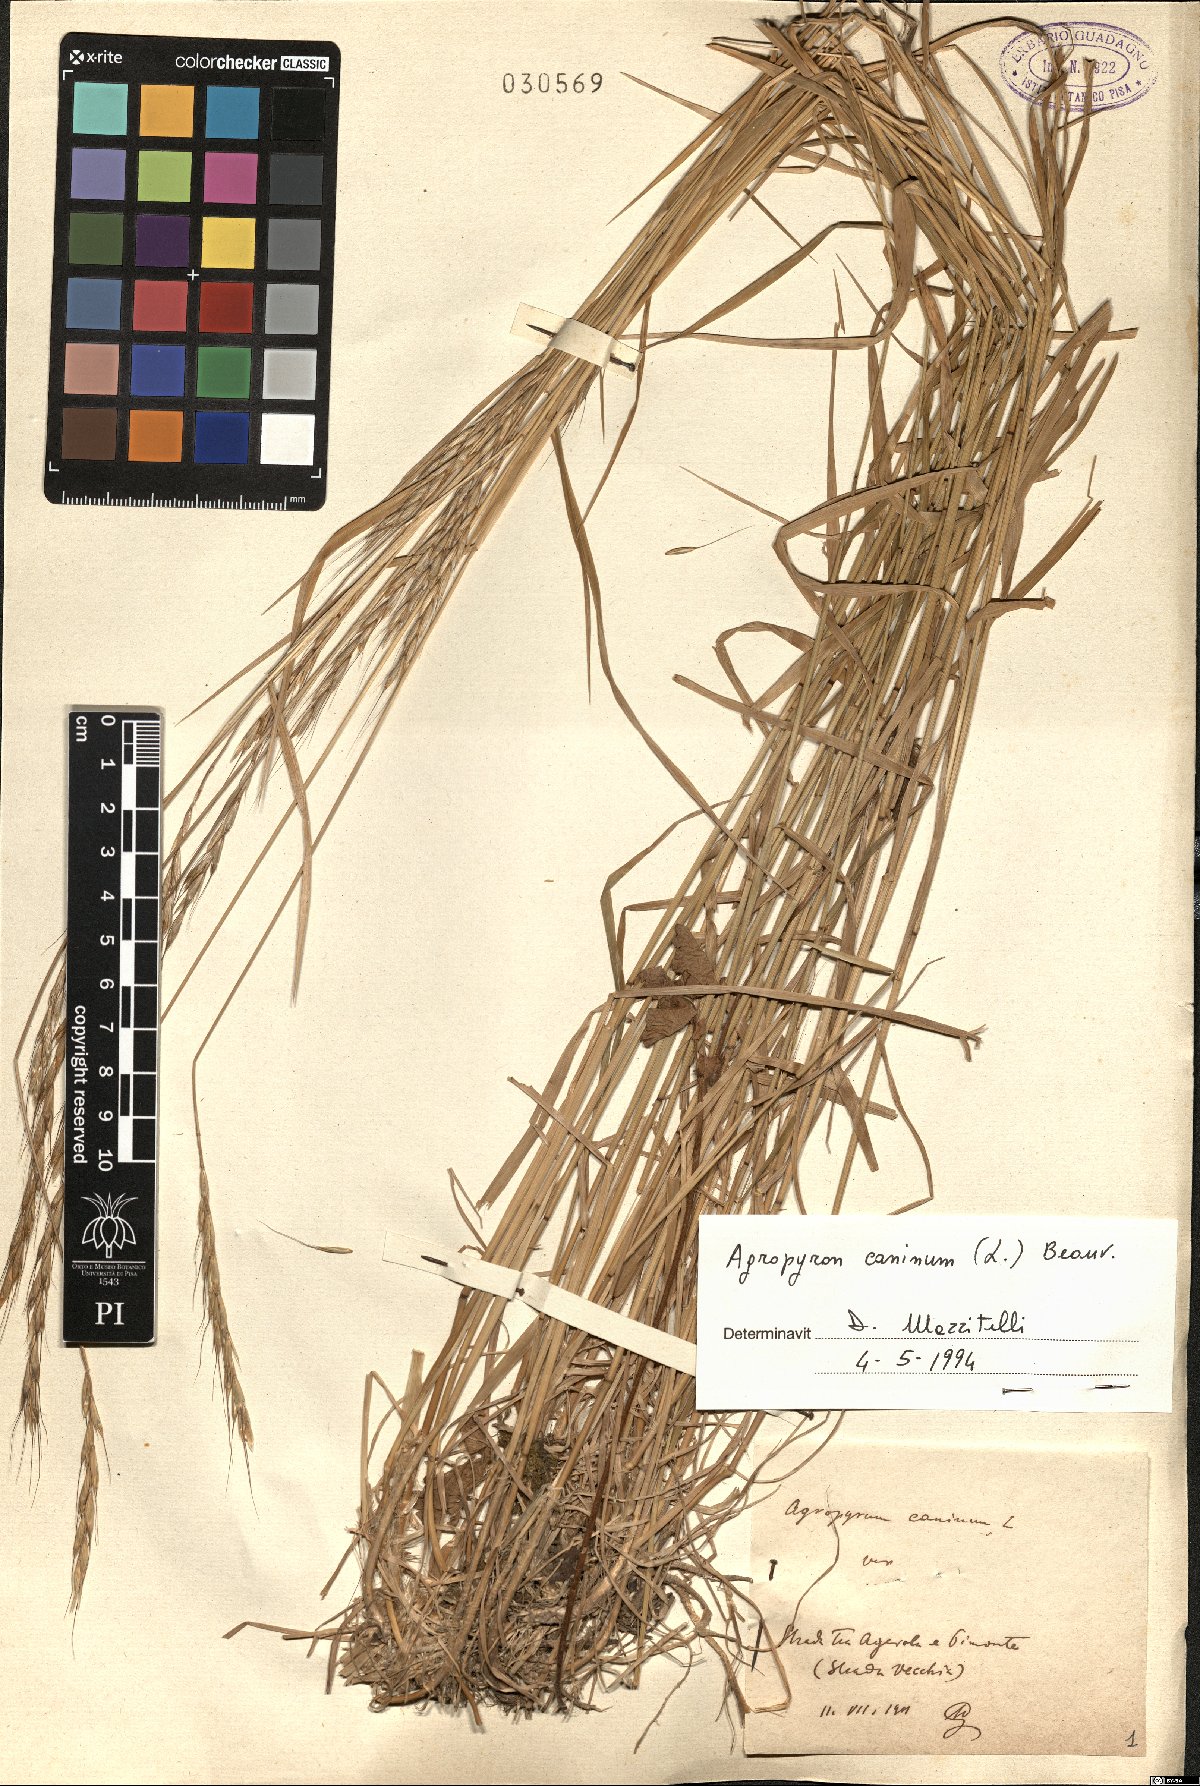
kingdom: Plantae
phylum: Tracheophyta
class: Liliopsida
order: Poales
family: Poaceae
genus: Elymus
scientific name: Elymus caninus
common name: Bearded couch
